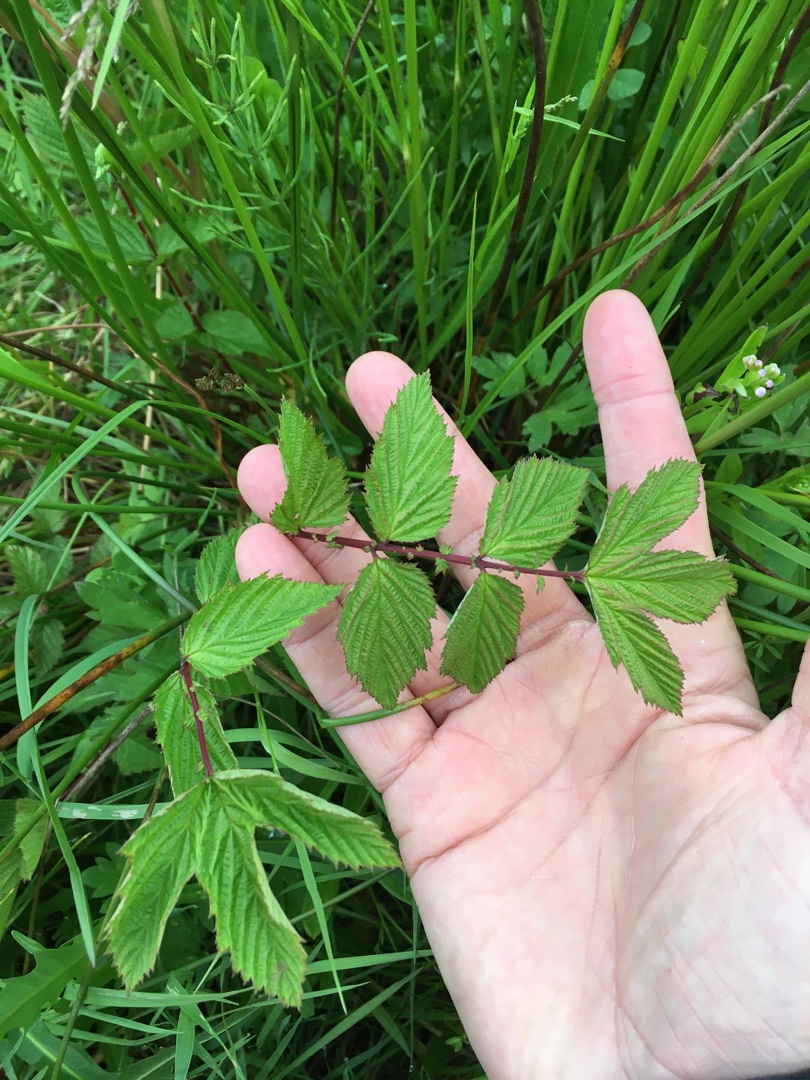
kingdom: Plantae
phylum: Tracheophyta
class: Magnoliopsida
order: Rosales
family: Rosaceae
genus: Filipendula
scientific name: Filipendula ulmaria
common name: Almindelig mjødurt
